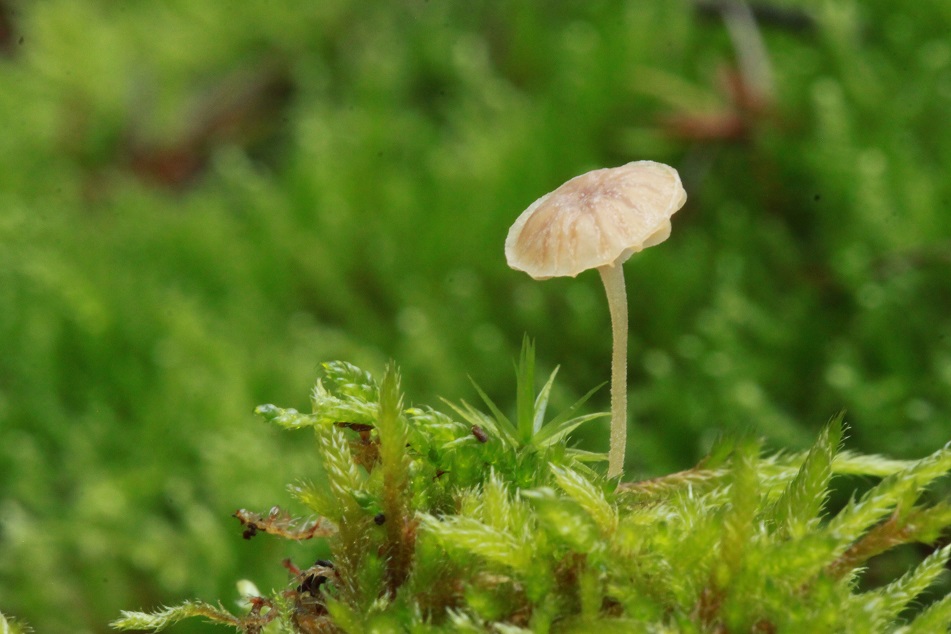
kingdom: Fungi
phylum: Basidiomycota
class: Agaricomycetes
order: Agaricales
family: Porotheleaceae
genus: Phloeomana
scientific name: Phloeomana clavata
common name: brunbladet huesvamp
